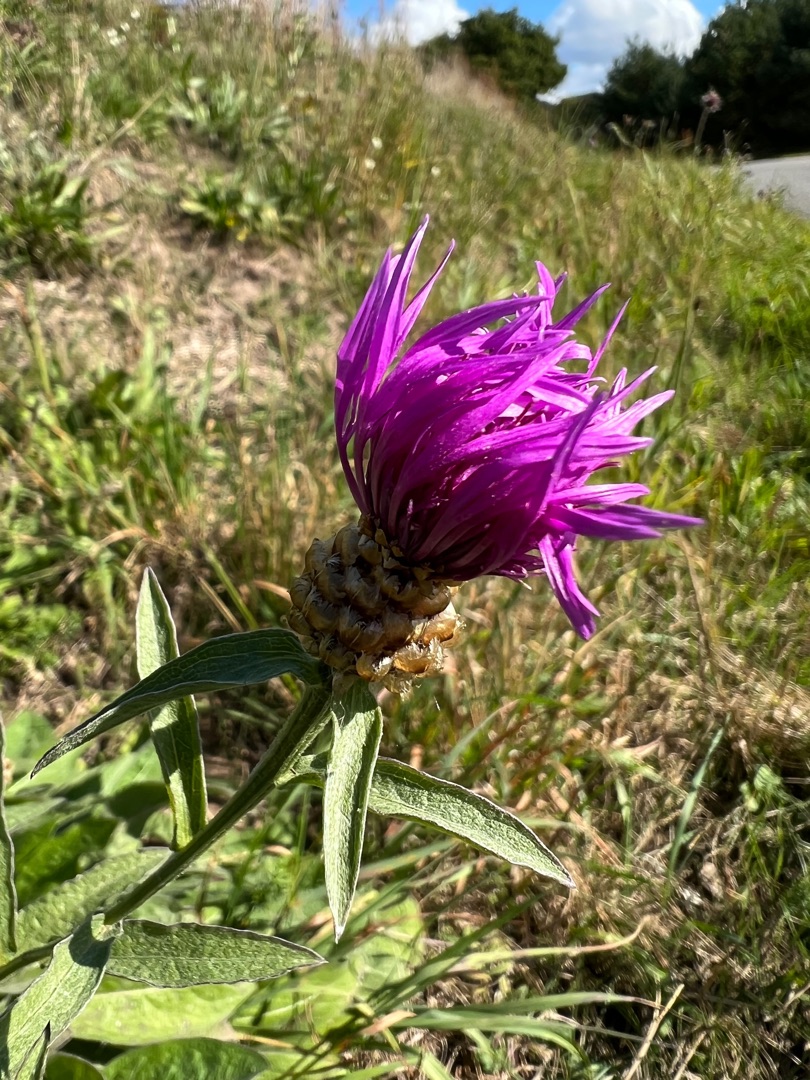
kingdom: Plantae
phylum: Tracheophyta
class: Magnoliopsida
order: Asterales
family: Asteraceae
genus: Centaurea
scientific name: Centaurea jacea
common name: Almindelig knopurt
